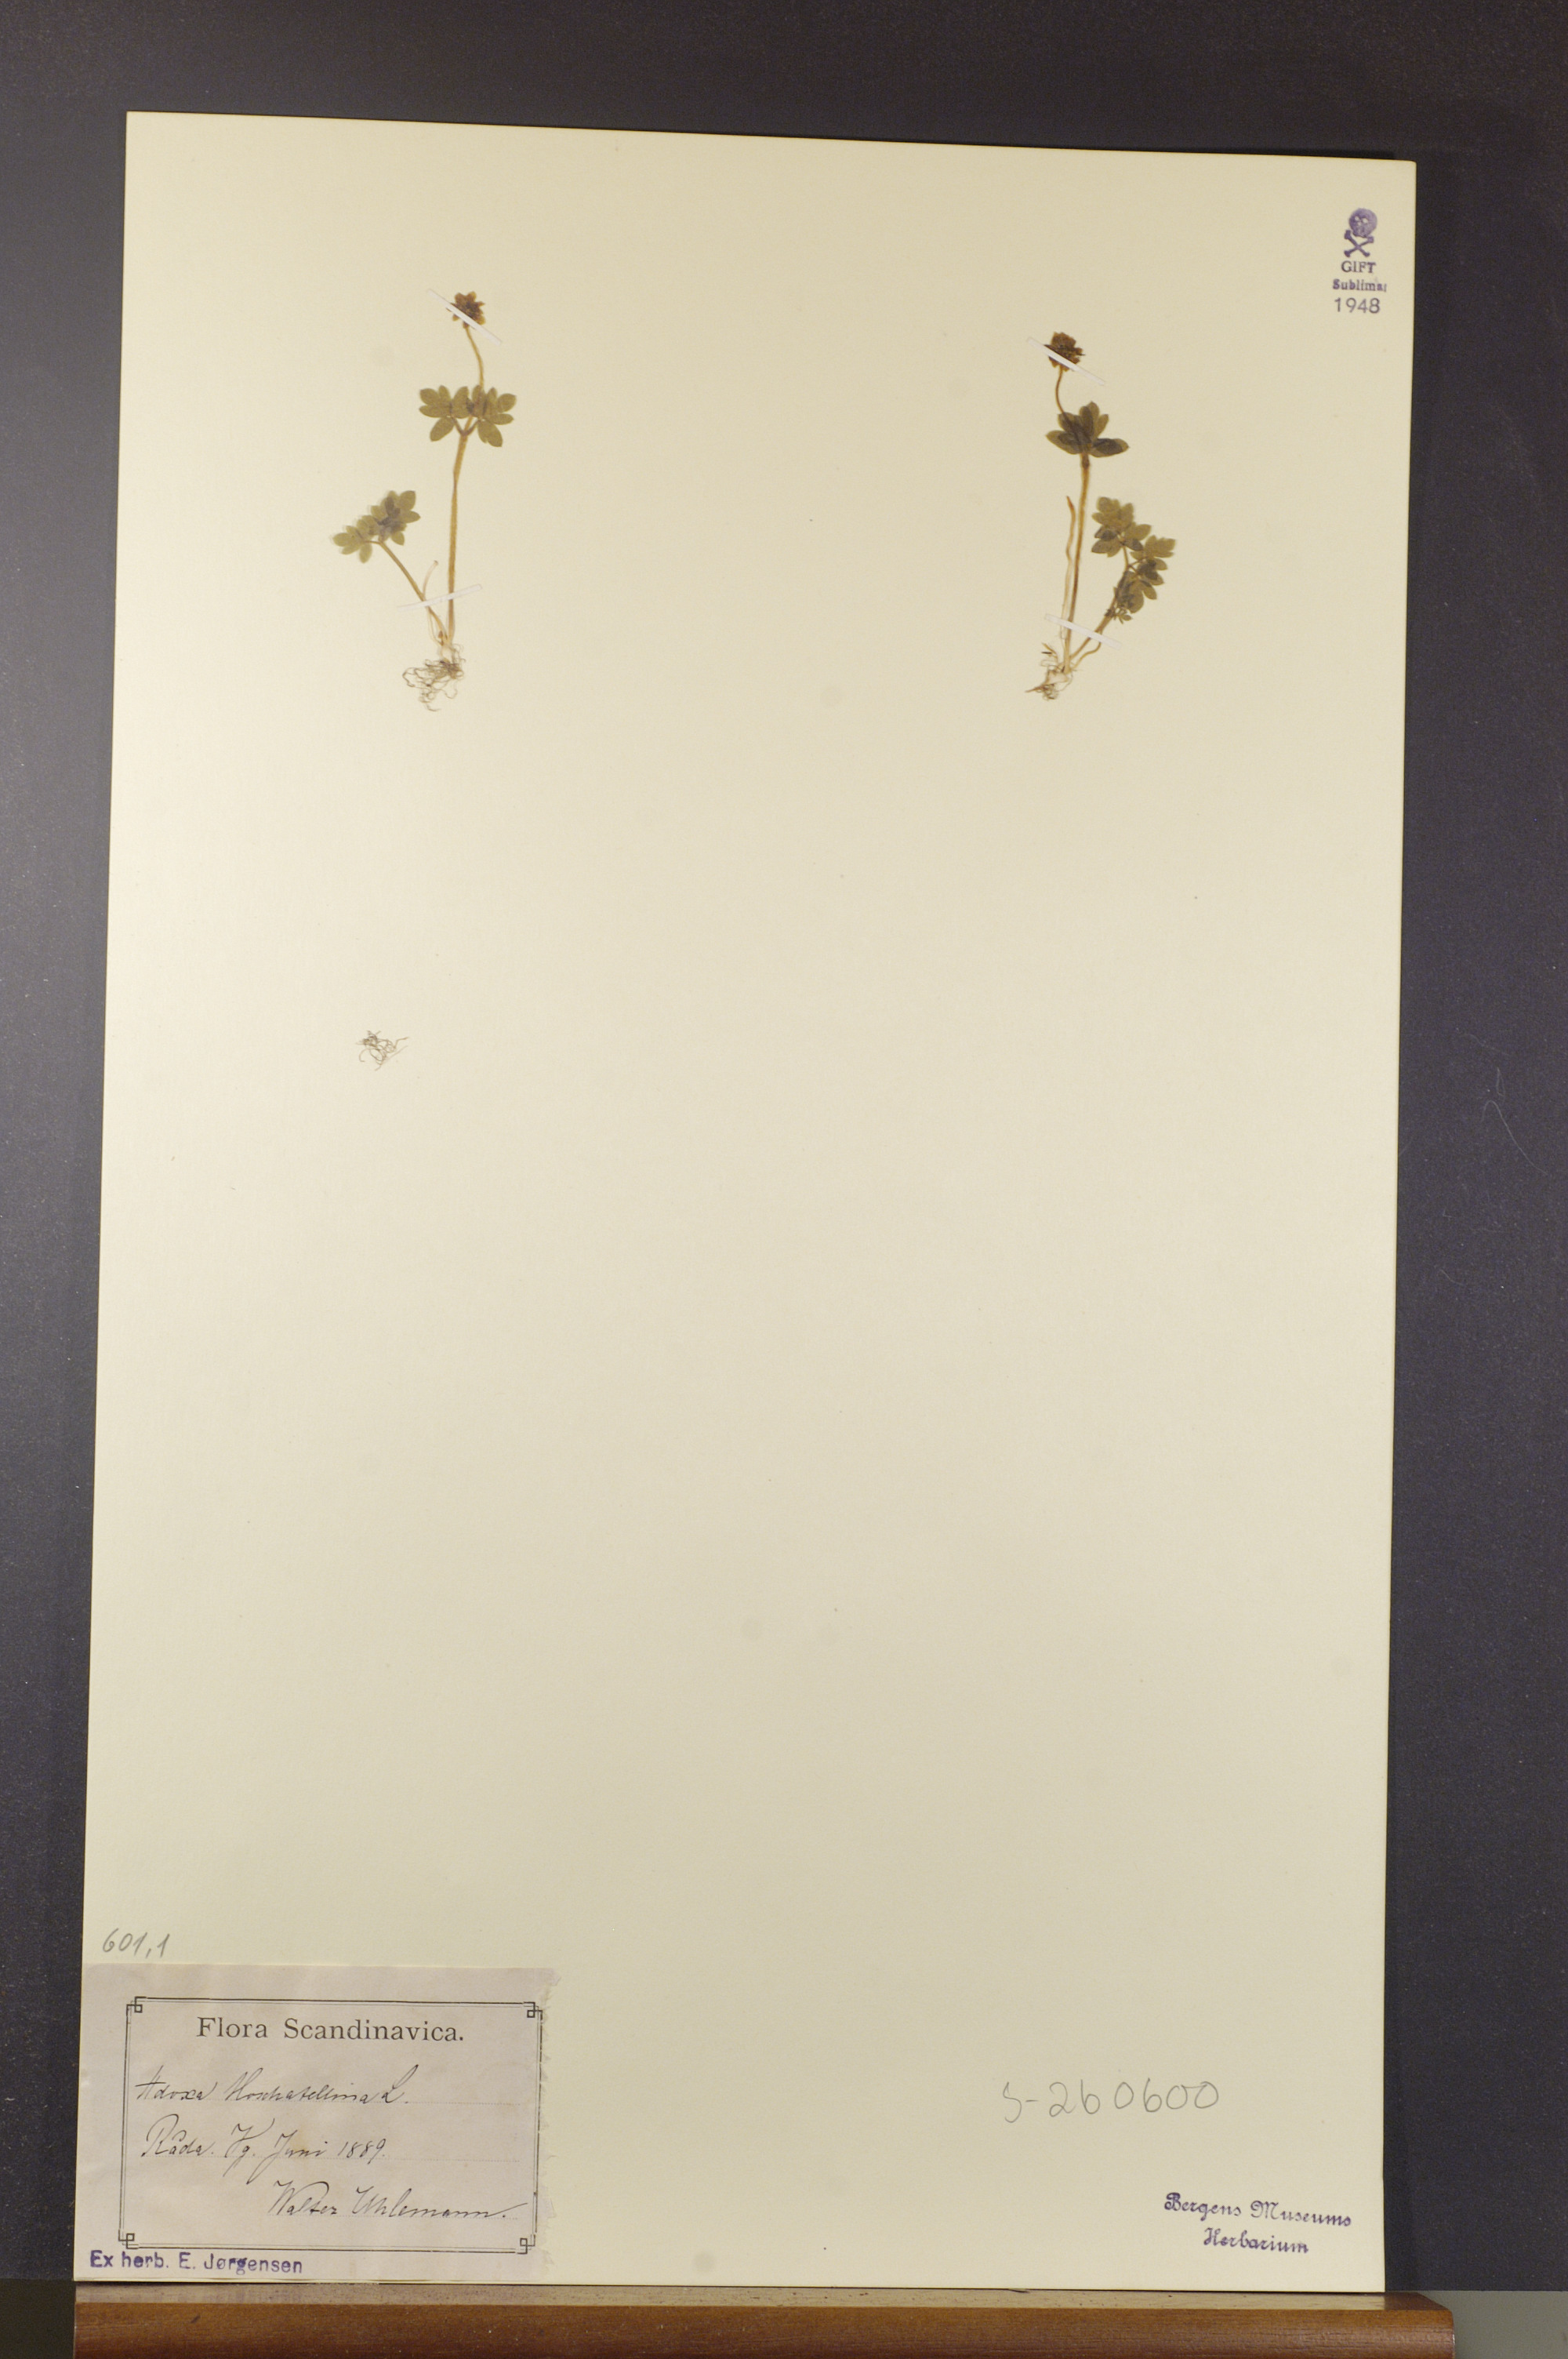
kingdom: Plantae
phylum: Tracheophyta
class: Magnoliopsida
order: Dipsacales
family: Viburnaceae
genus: Adoxa
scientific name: Adoxa moschatellina
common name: Moschatel
